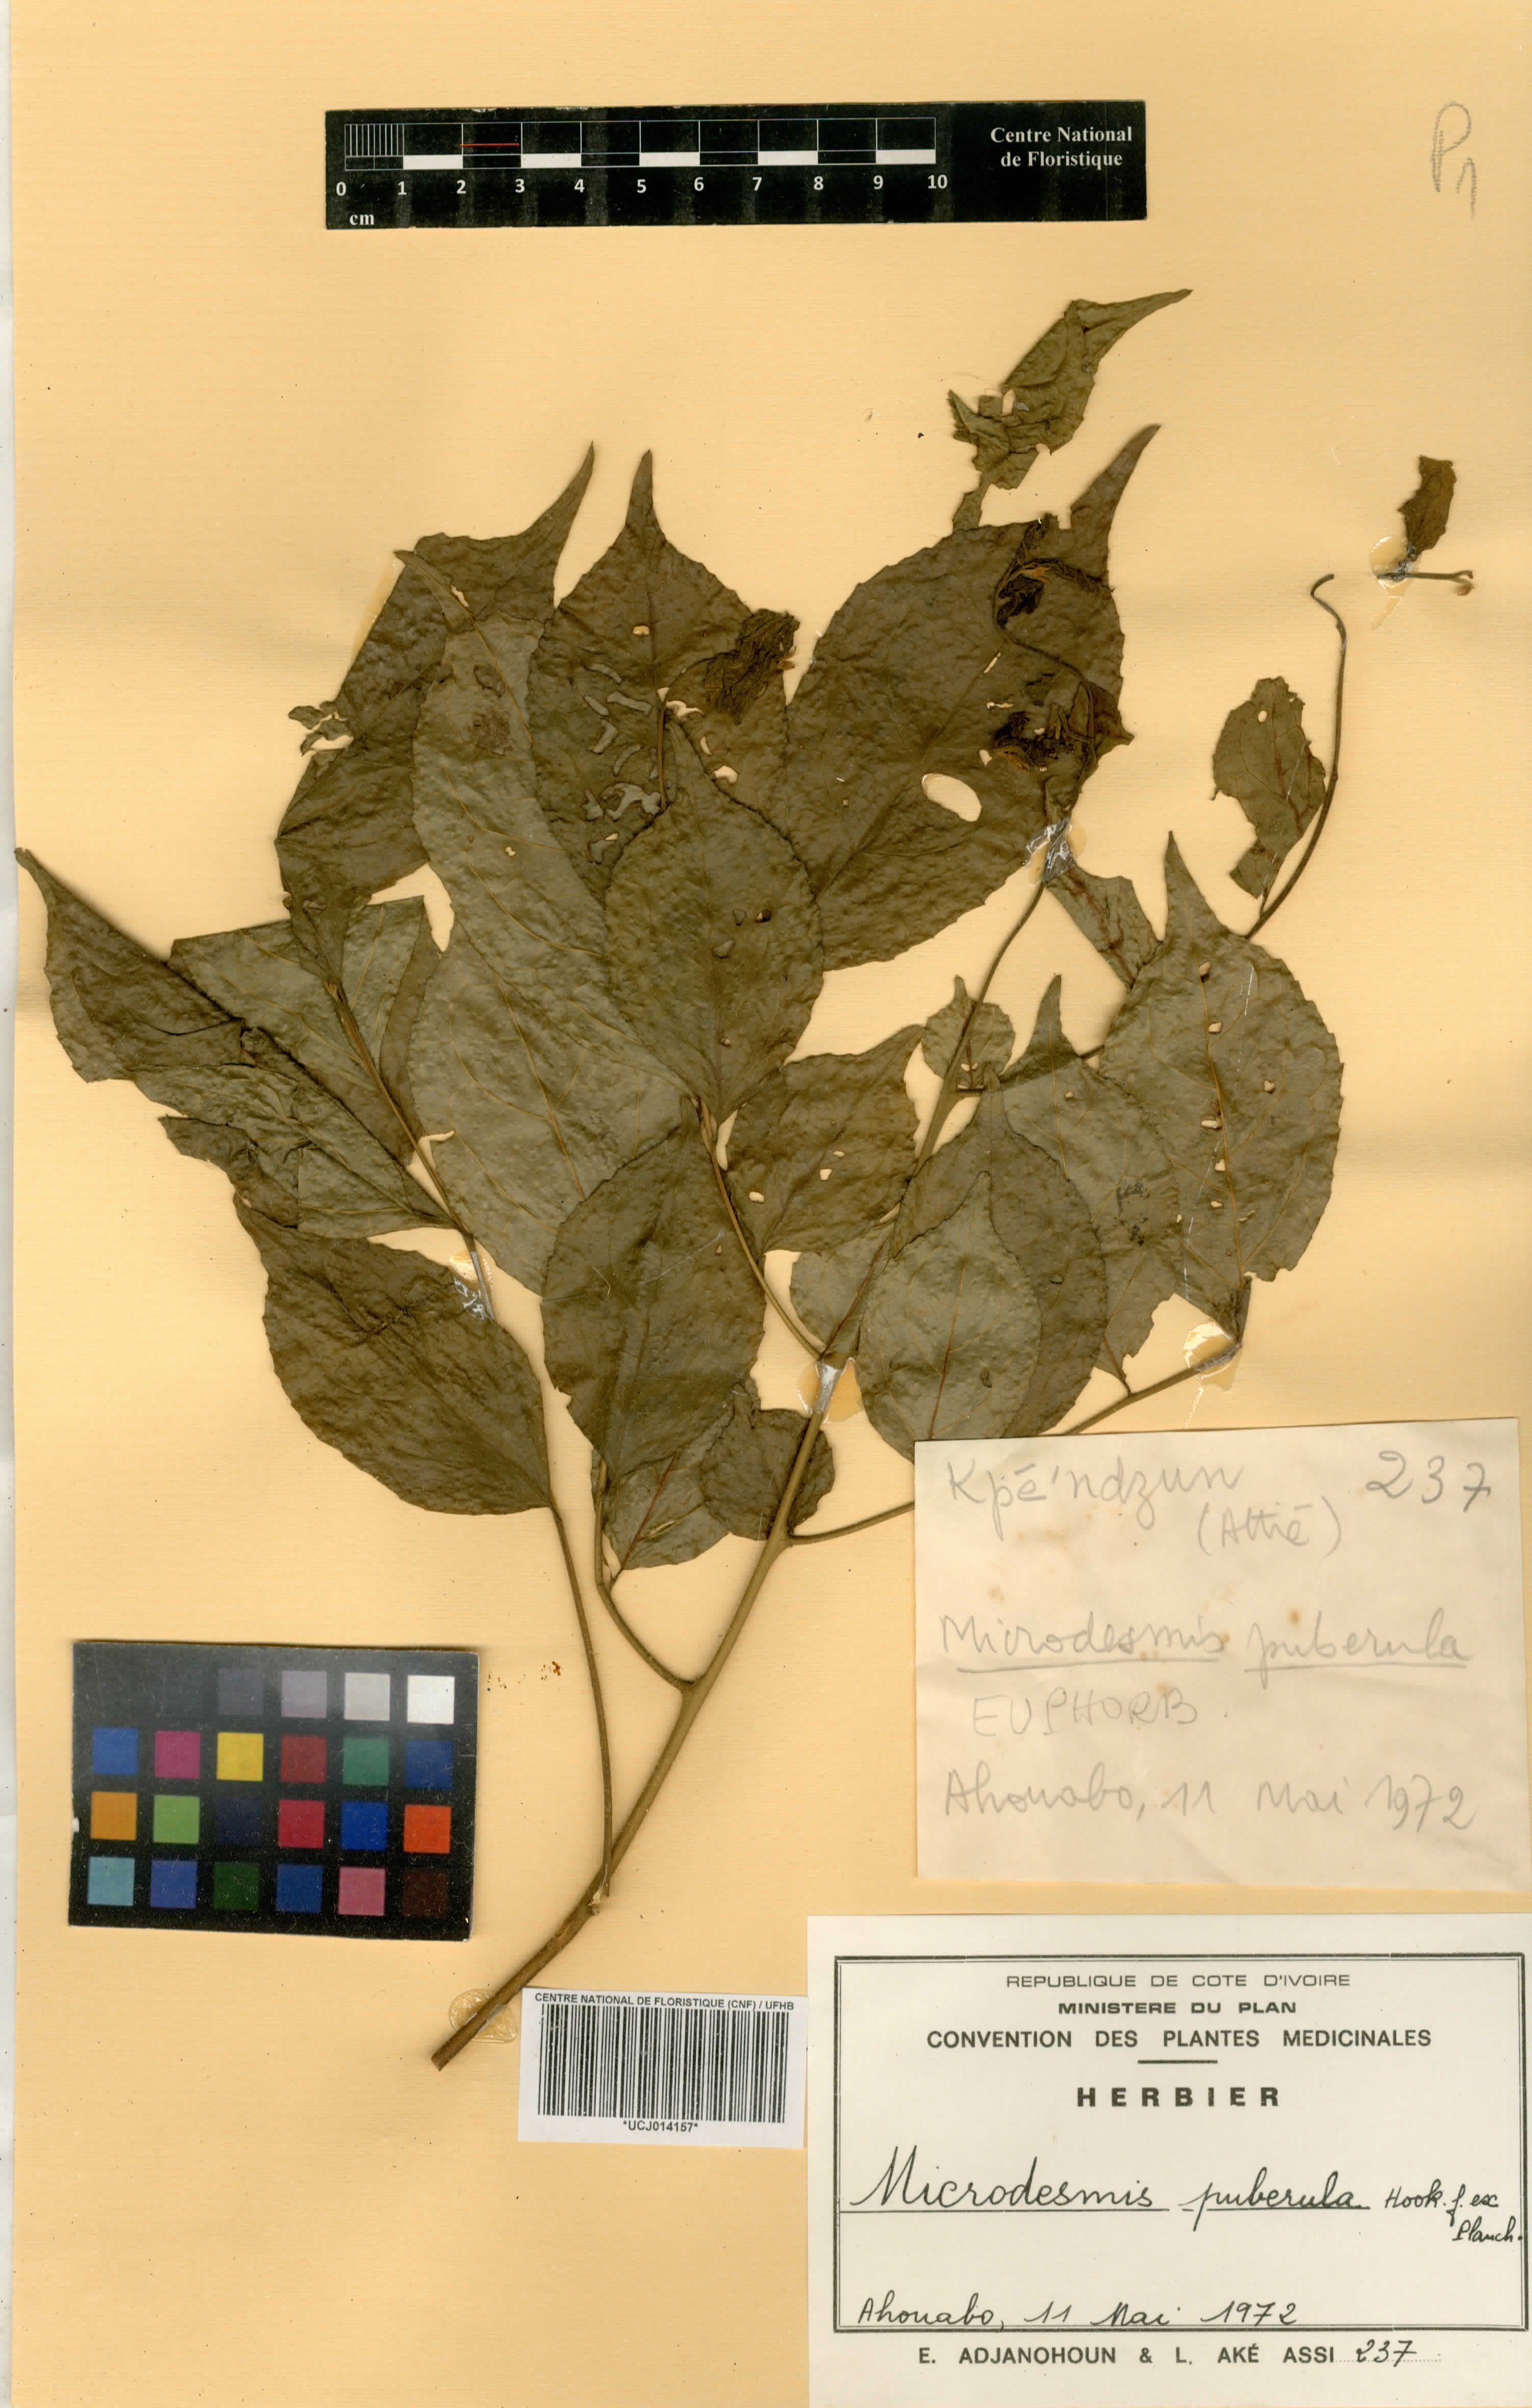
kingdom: Plantae
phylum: Tracheophyta
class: Magnoliopsida
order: Malpighiales
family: Pandaceae
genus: Microdesmis
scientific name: Microdesmis puberula
